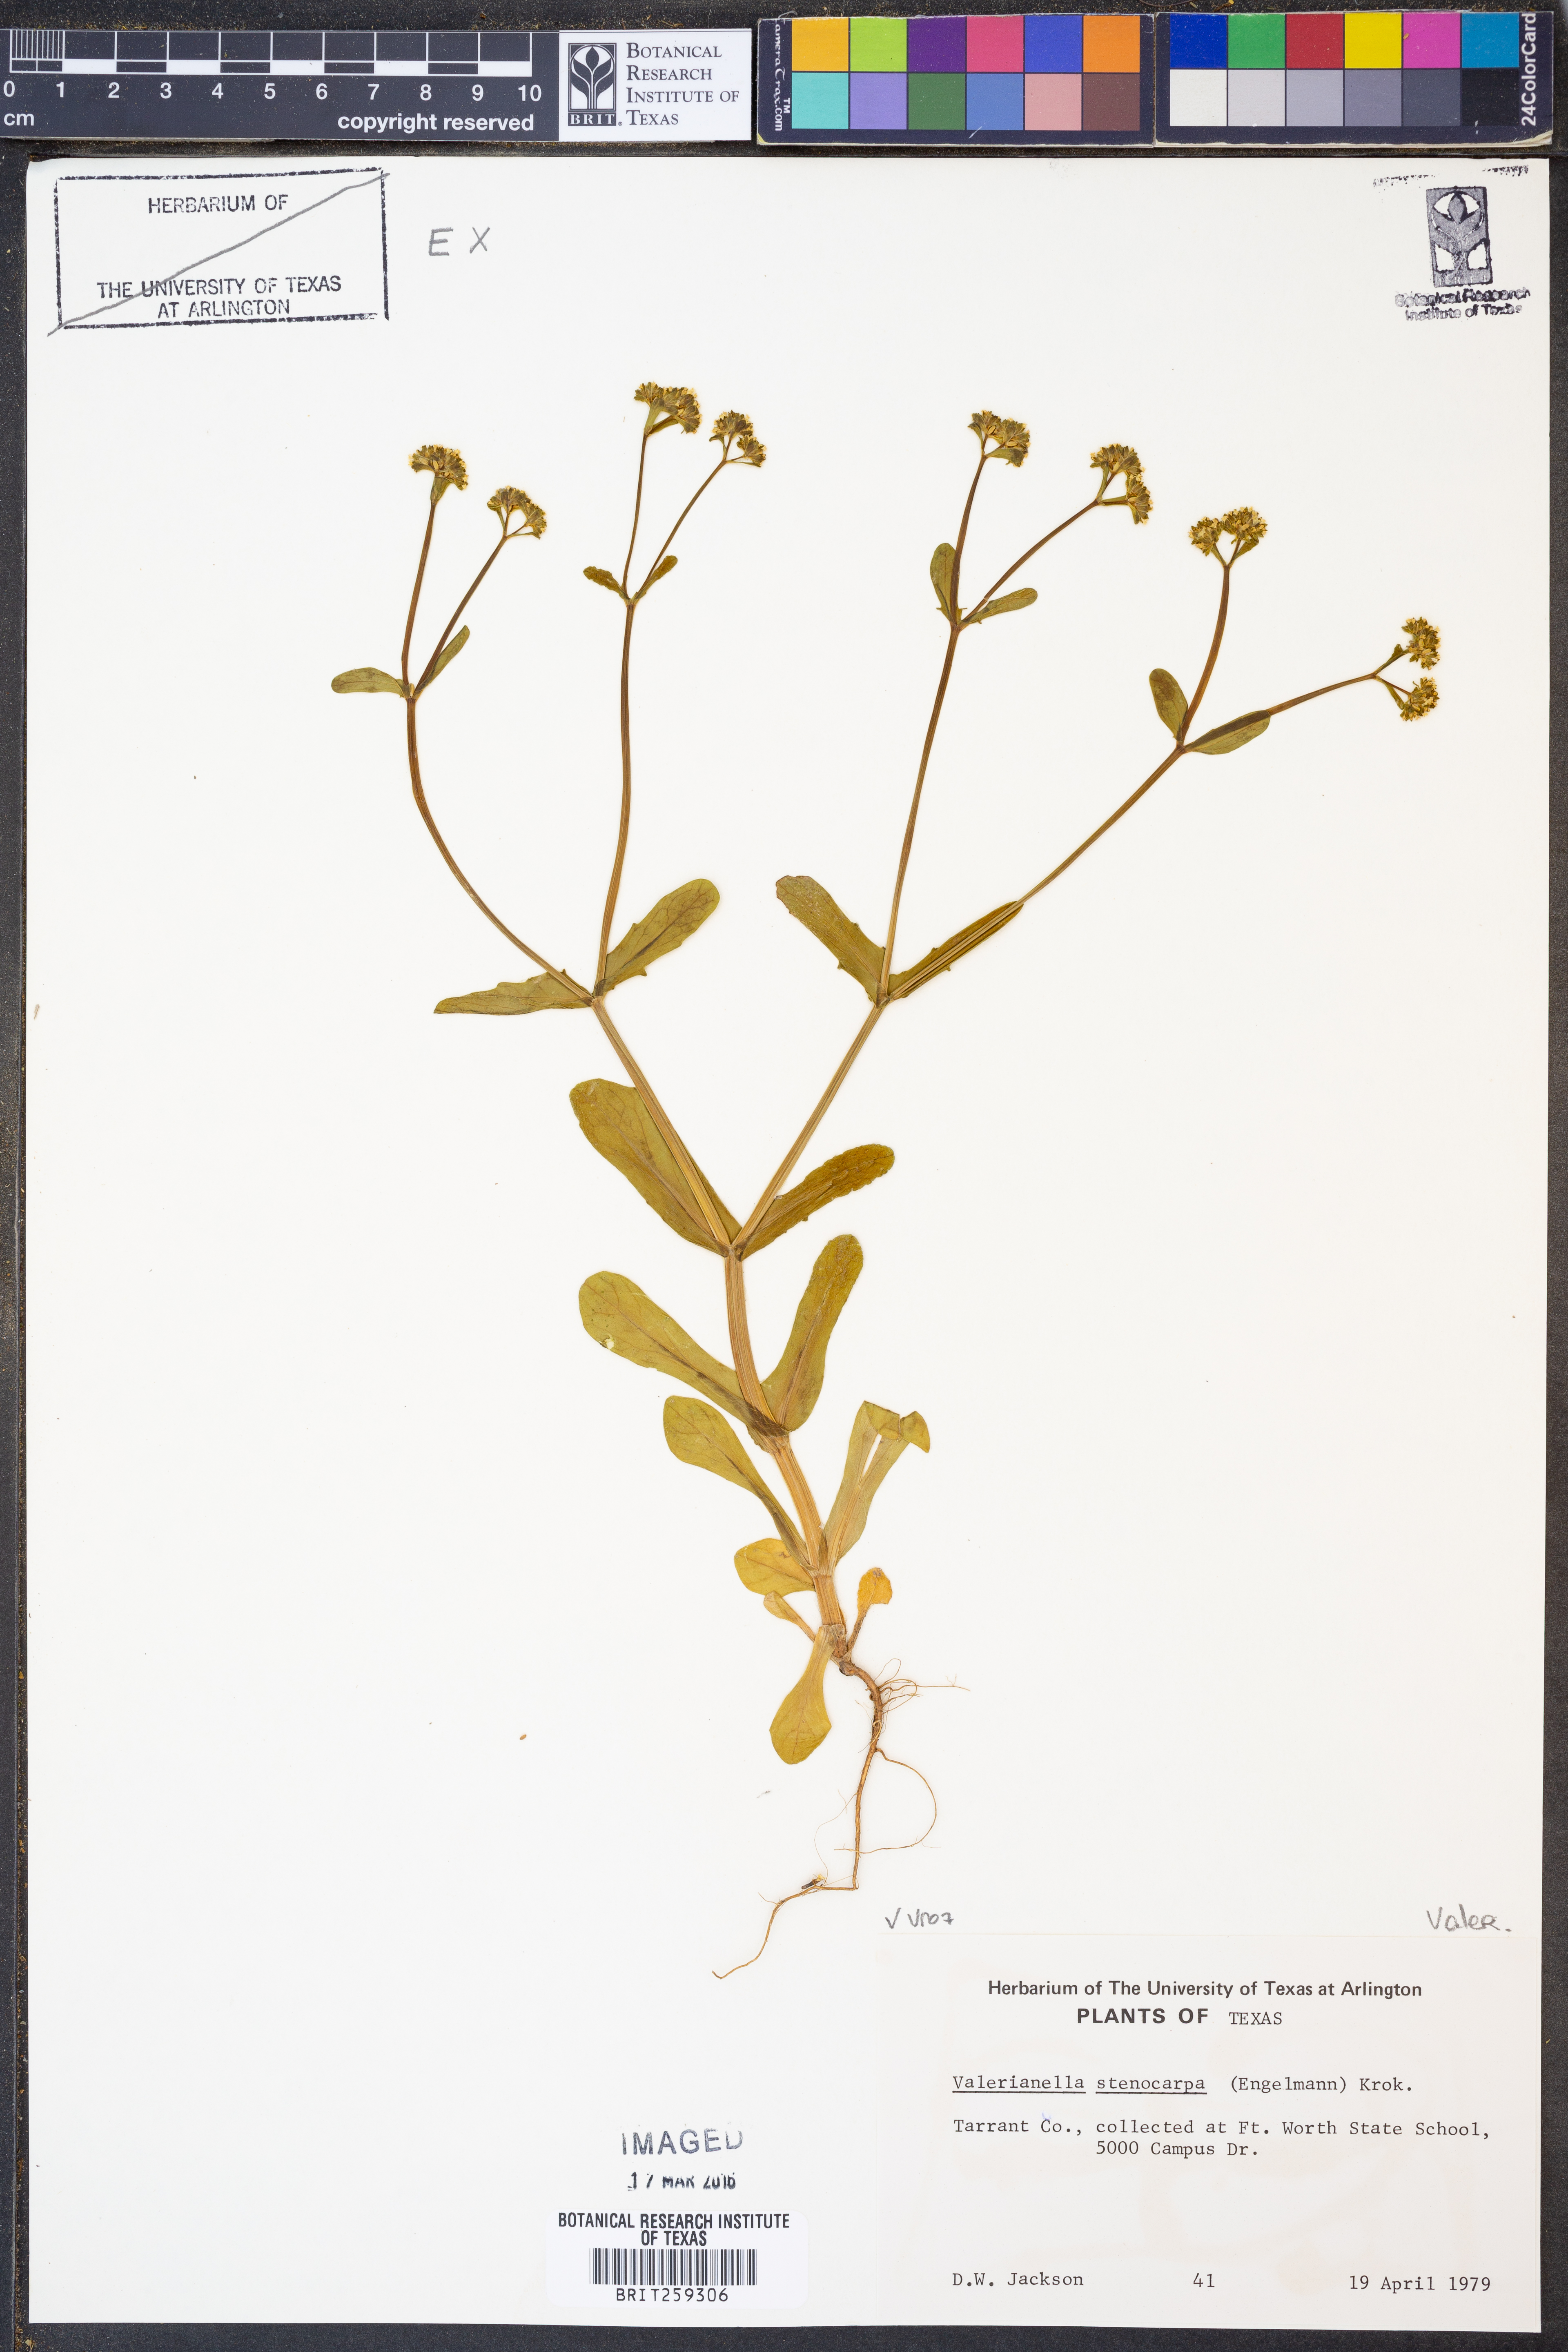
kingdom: Plantae
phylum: Tracheophyta
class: Magnoliopsida
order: Dipsacales
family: Caprifoliaceae
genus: Valerianella
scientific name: Valerianella stenocarpa
